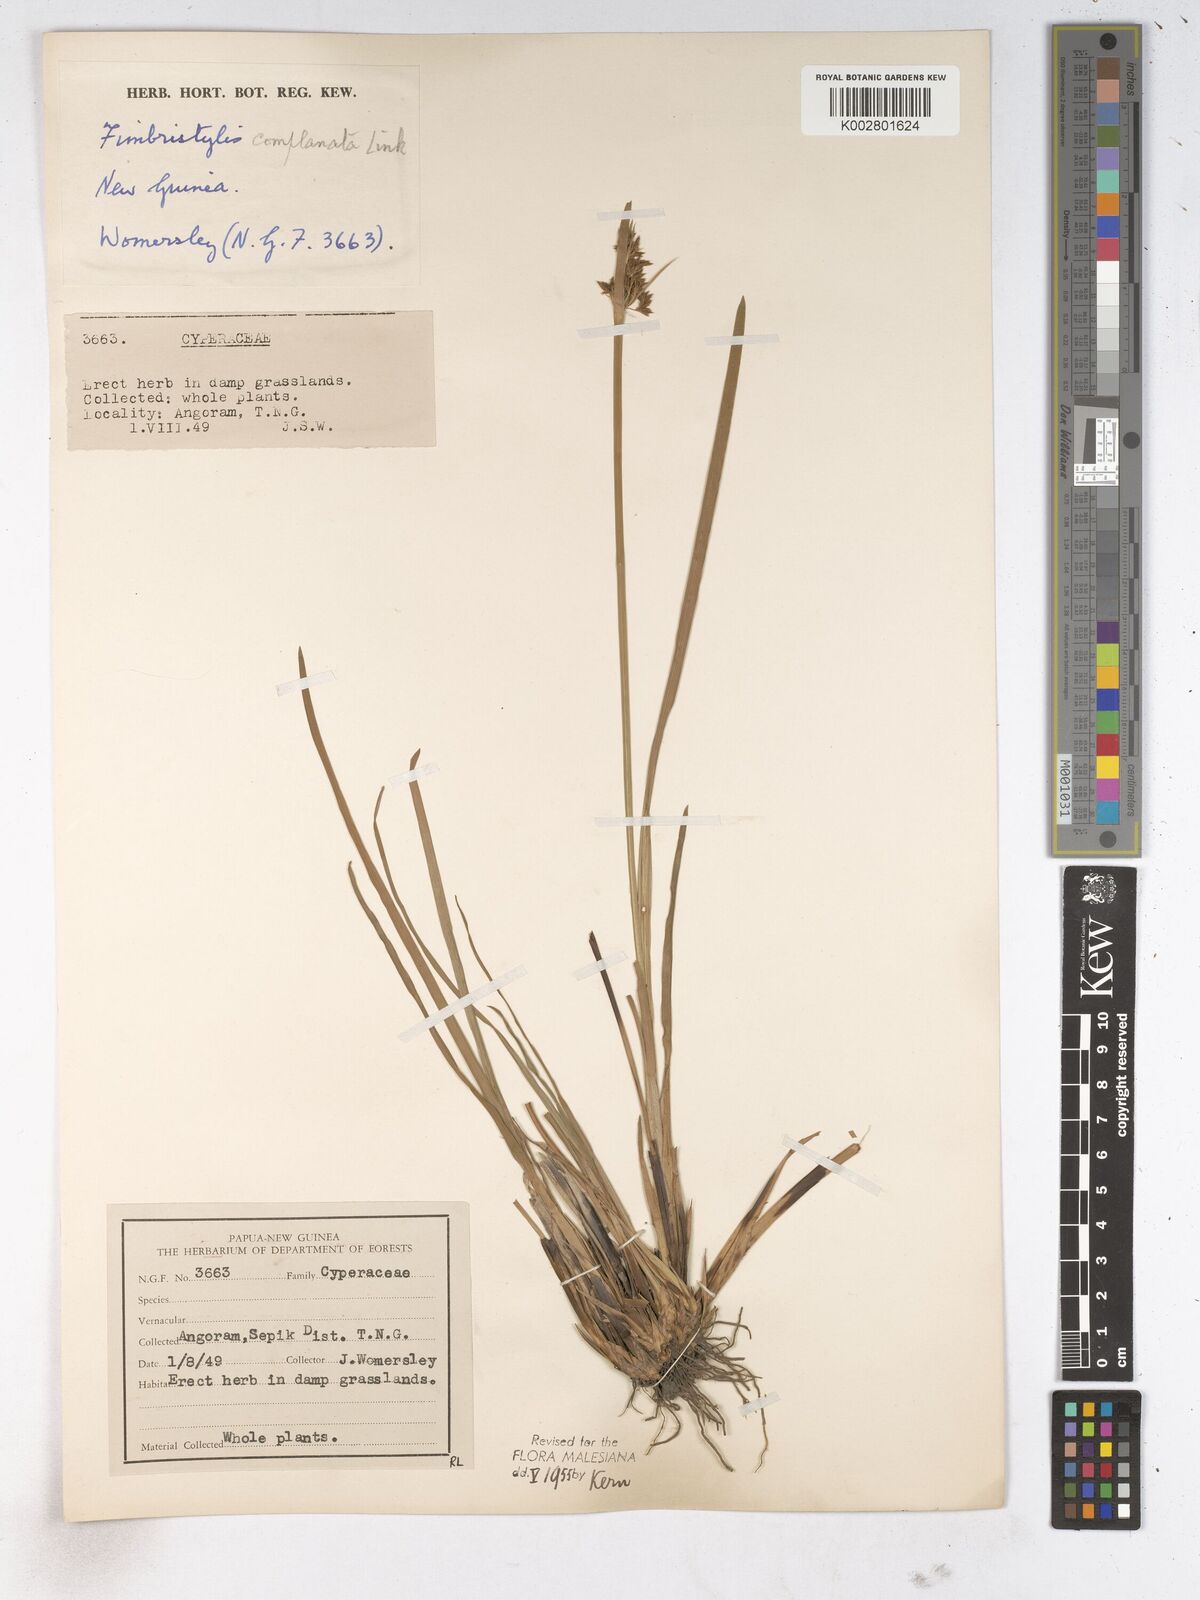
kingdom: Plantae
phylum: Tracheophyta
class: Liliopsida
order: Poales
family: Cyperaceae
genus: Fimbristylis
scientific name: Fimbristylis complanata
